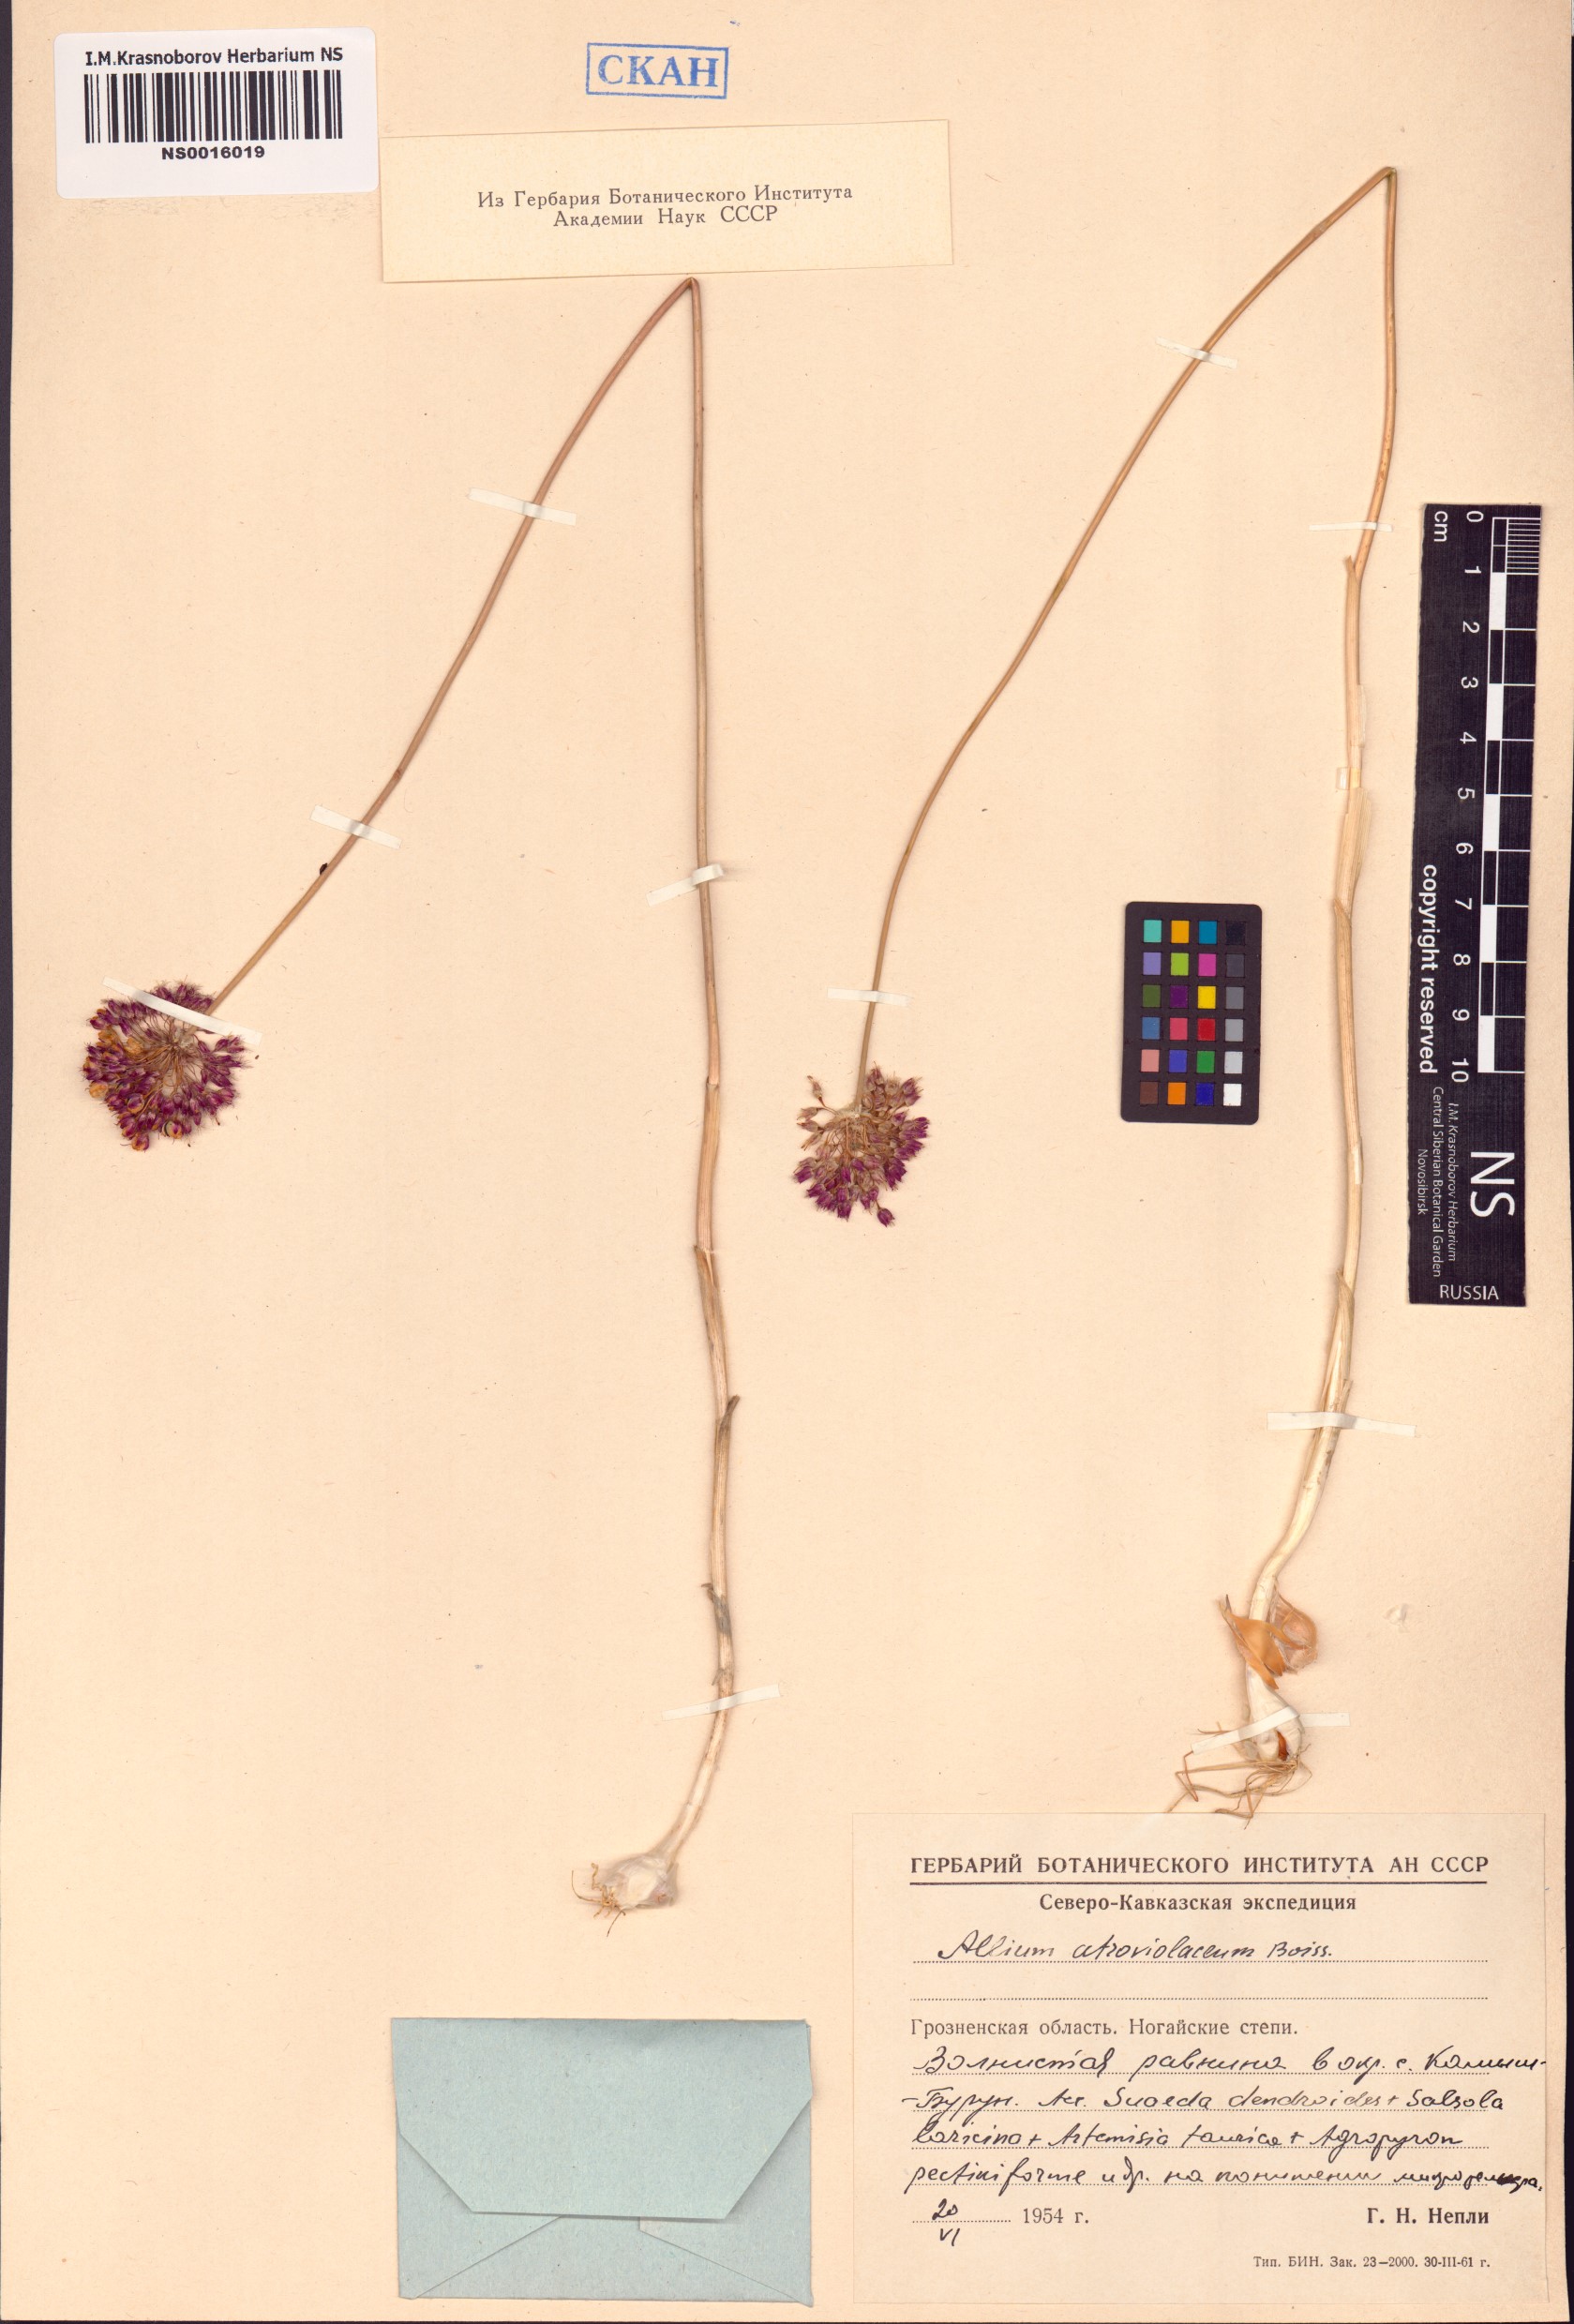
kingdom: Plantae
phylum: Tracheophyta
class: Liliopsida
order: Asparagales
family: Amaryllidaceae
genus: Allium
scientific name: Allium atroviolaceum
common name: Broadleaf wild leek
